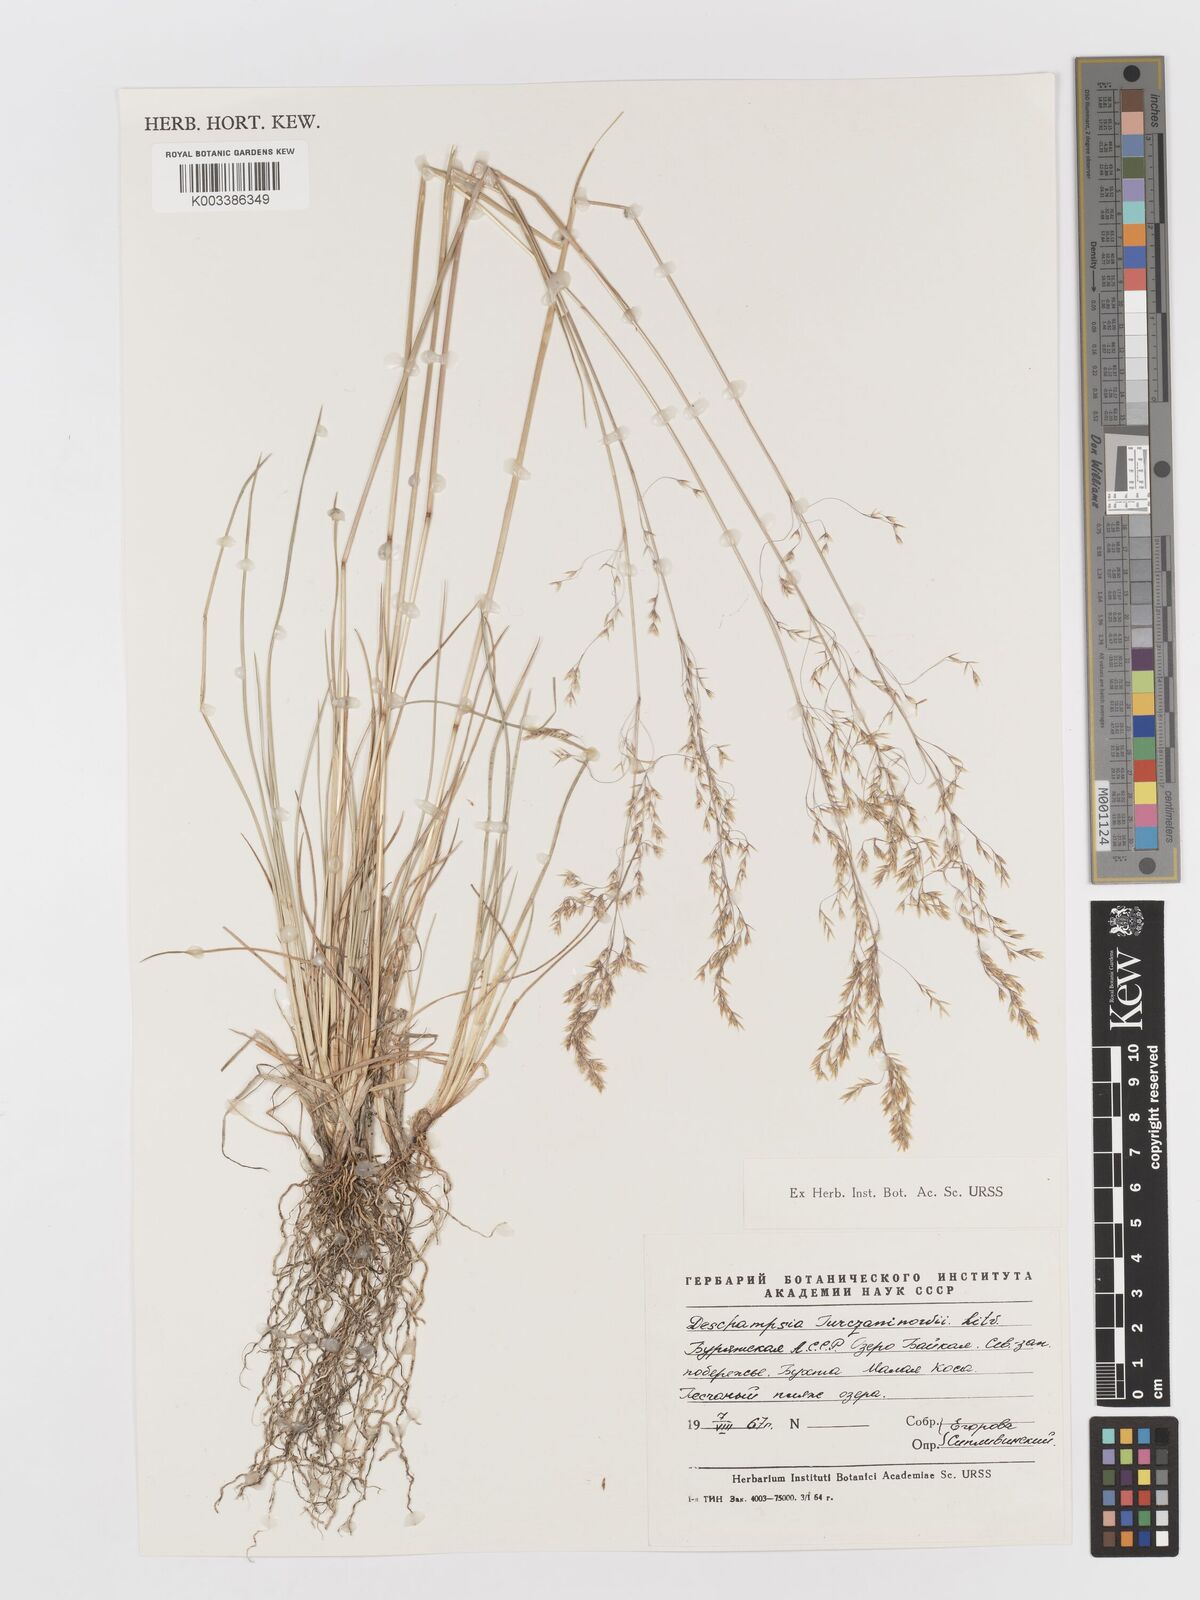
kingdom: Plantae
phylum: Tracheophyta
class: Liliopsida
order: Poales
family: Poaceae
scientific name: Poaceae
